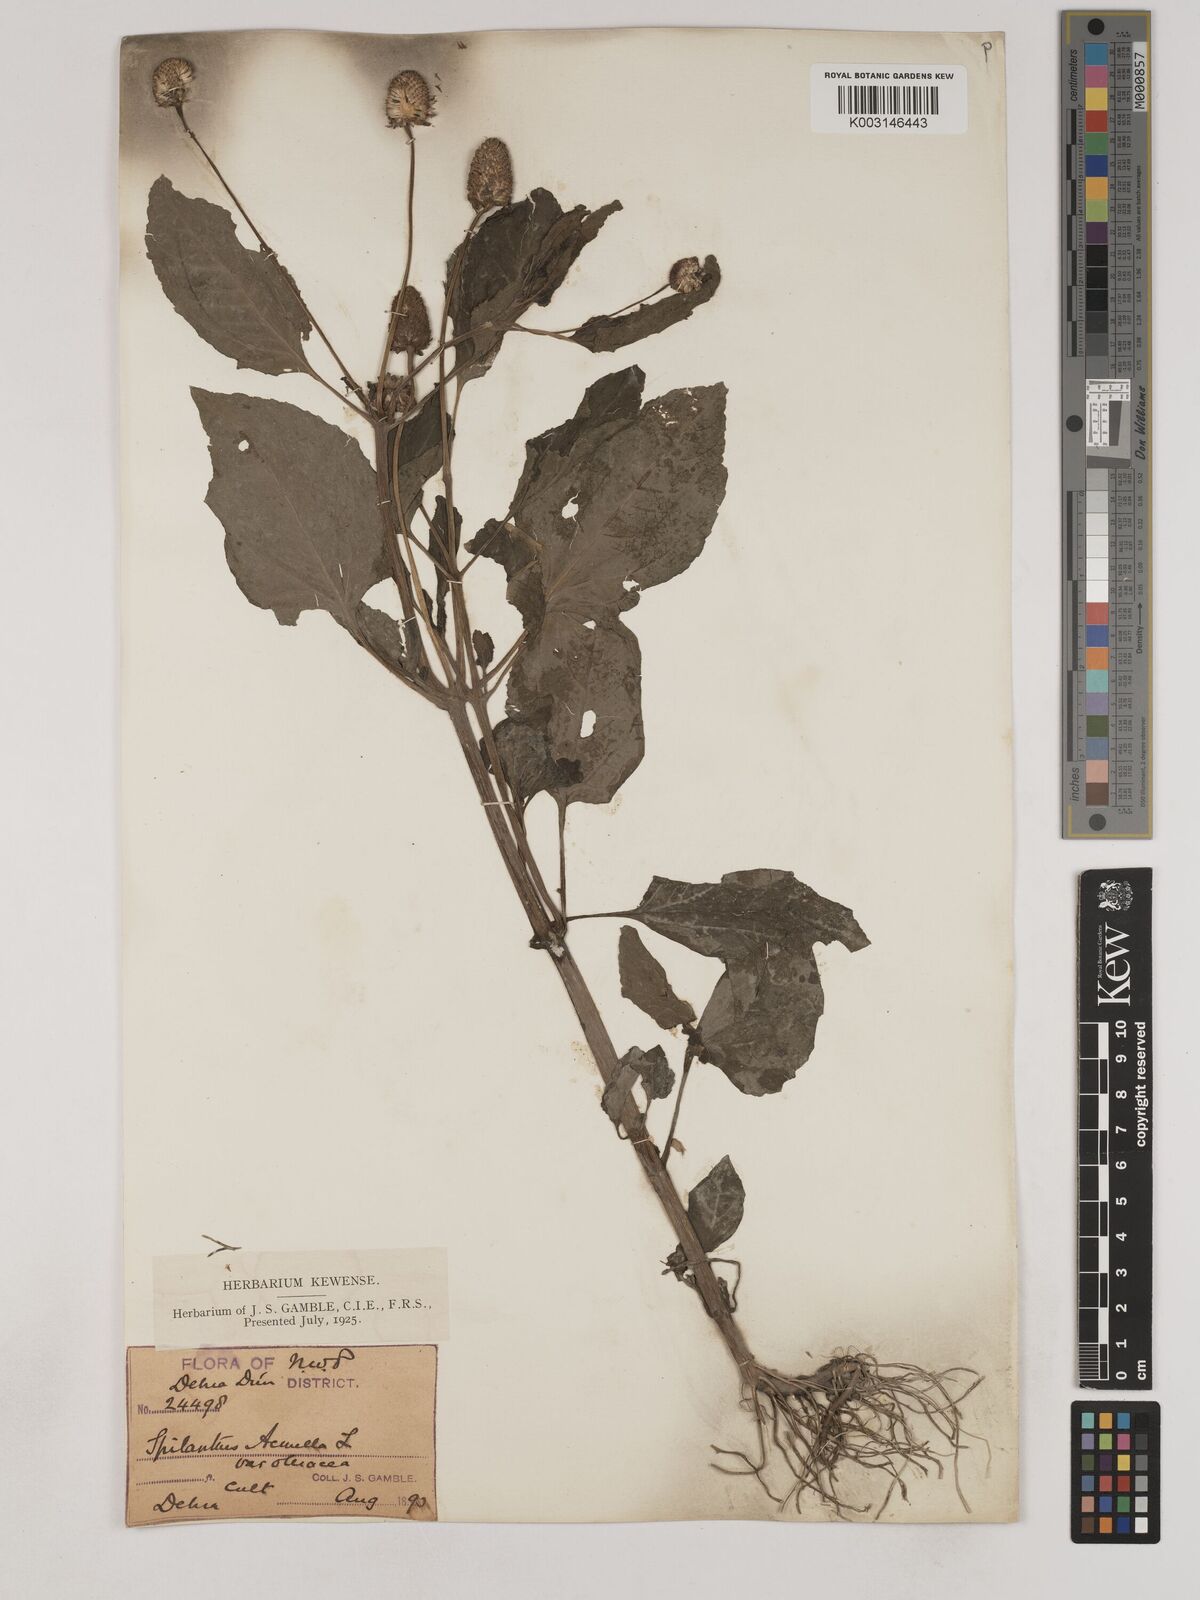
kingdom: Plantae
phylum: Tracheophyta
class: Magnoliopsida
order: Asterales
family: Asteraceae
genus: Acmella
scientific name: Acmella oleracea
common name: Brazilian cress
